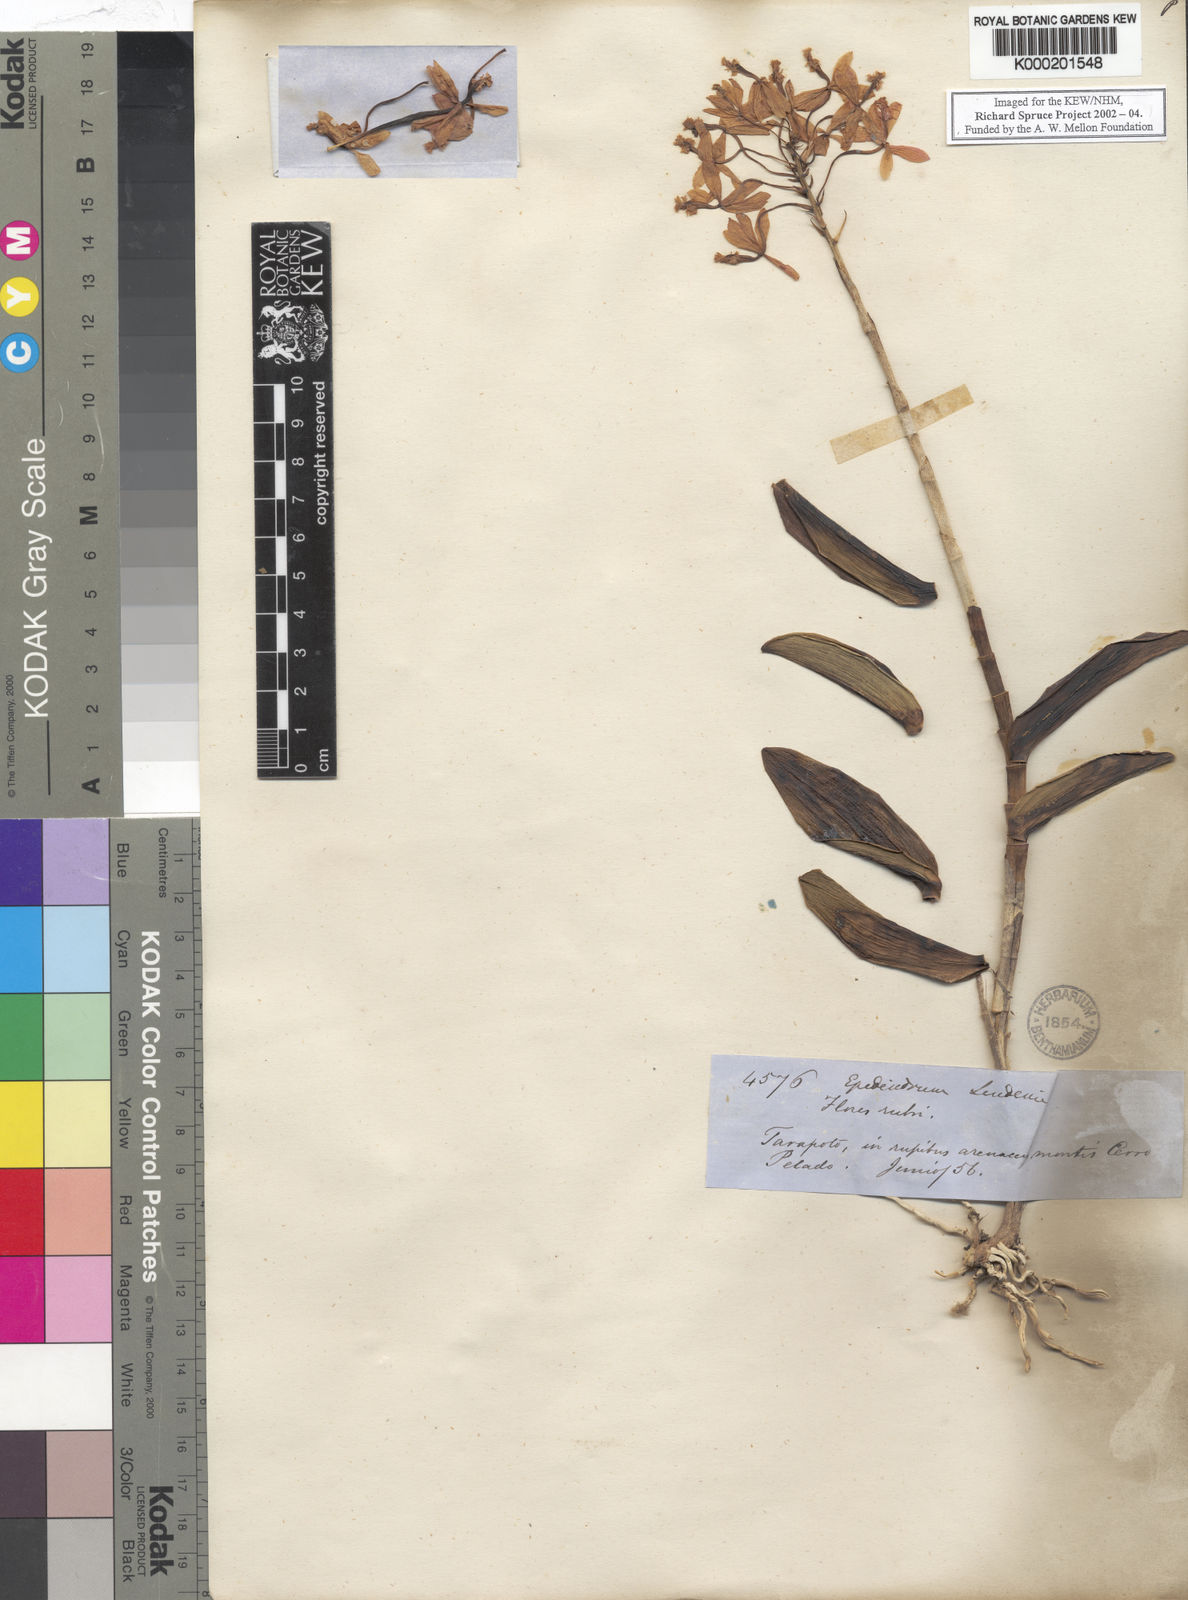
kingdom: Plantae
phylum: Tracheophyta
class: Liliopsida
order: Asparagales
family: Orchidaceae
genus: Epidendrum
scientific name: Epidendrum dichotomum
